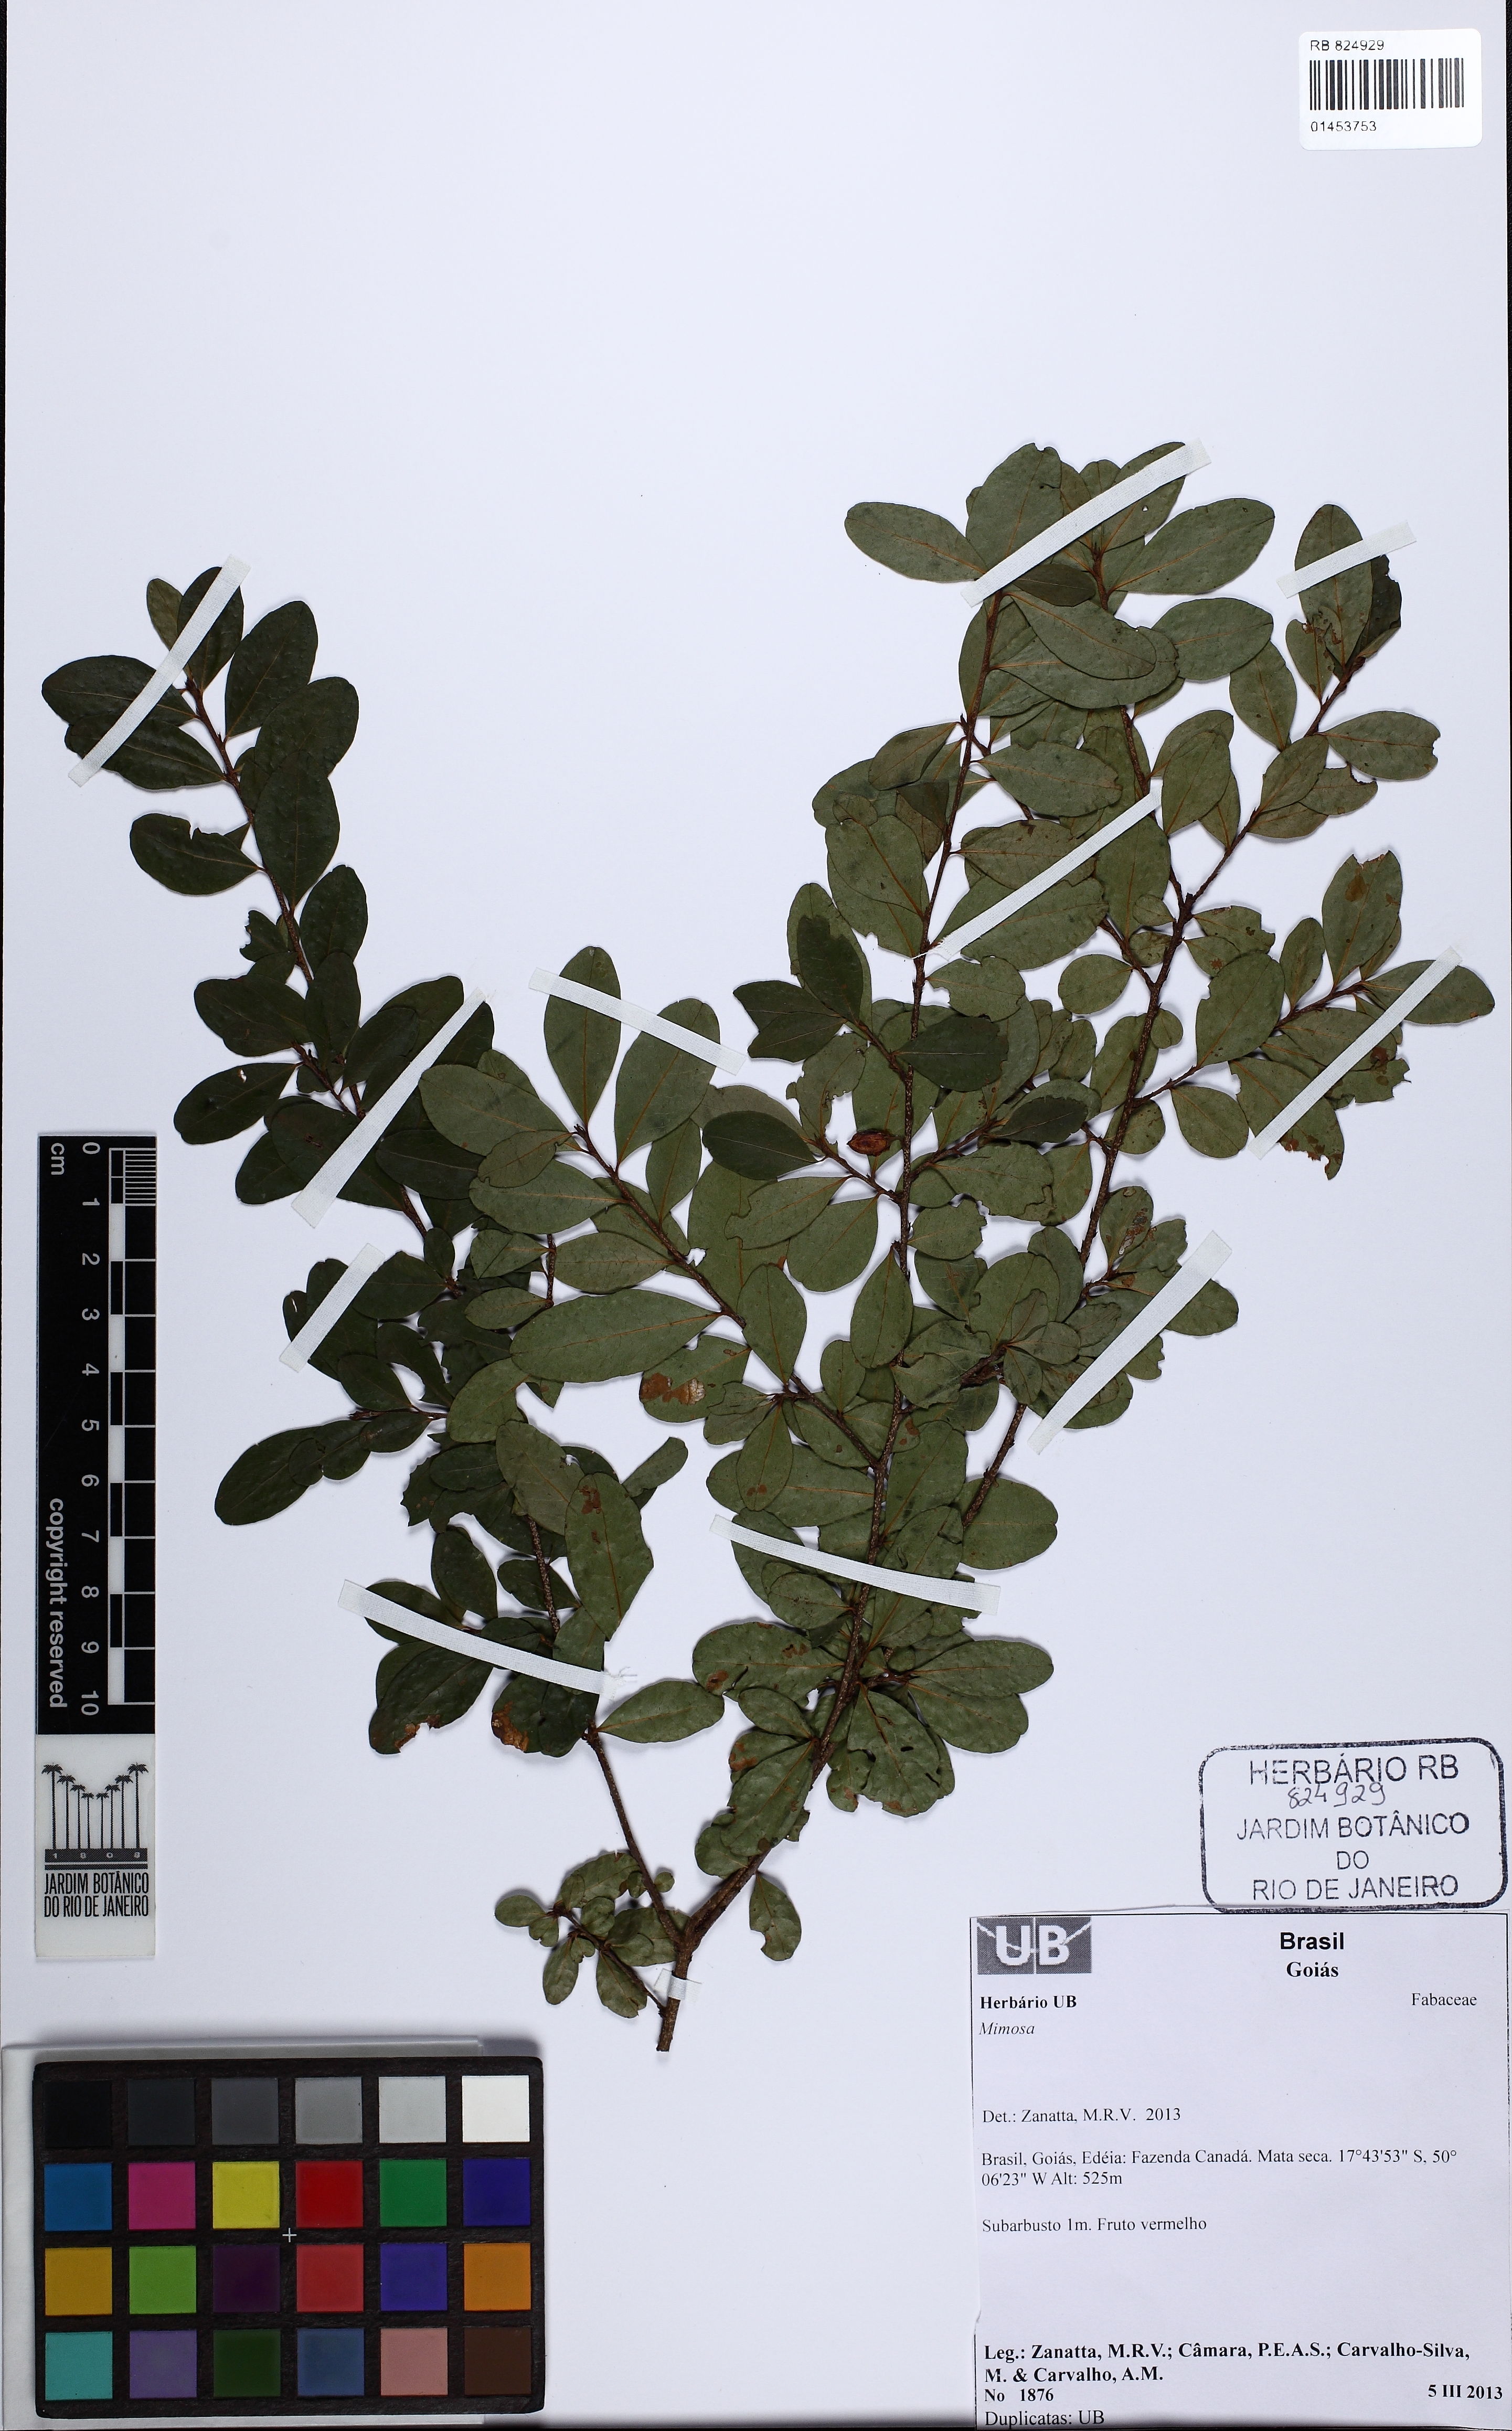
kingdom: Plantae
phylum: Tracheophyta
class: Magnoliopsida
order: Fabales
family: Fabaceae
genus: Mimosa
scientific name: Mimosa
